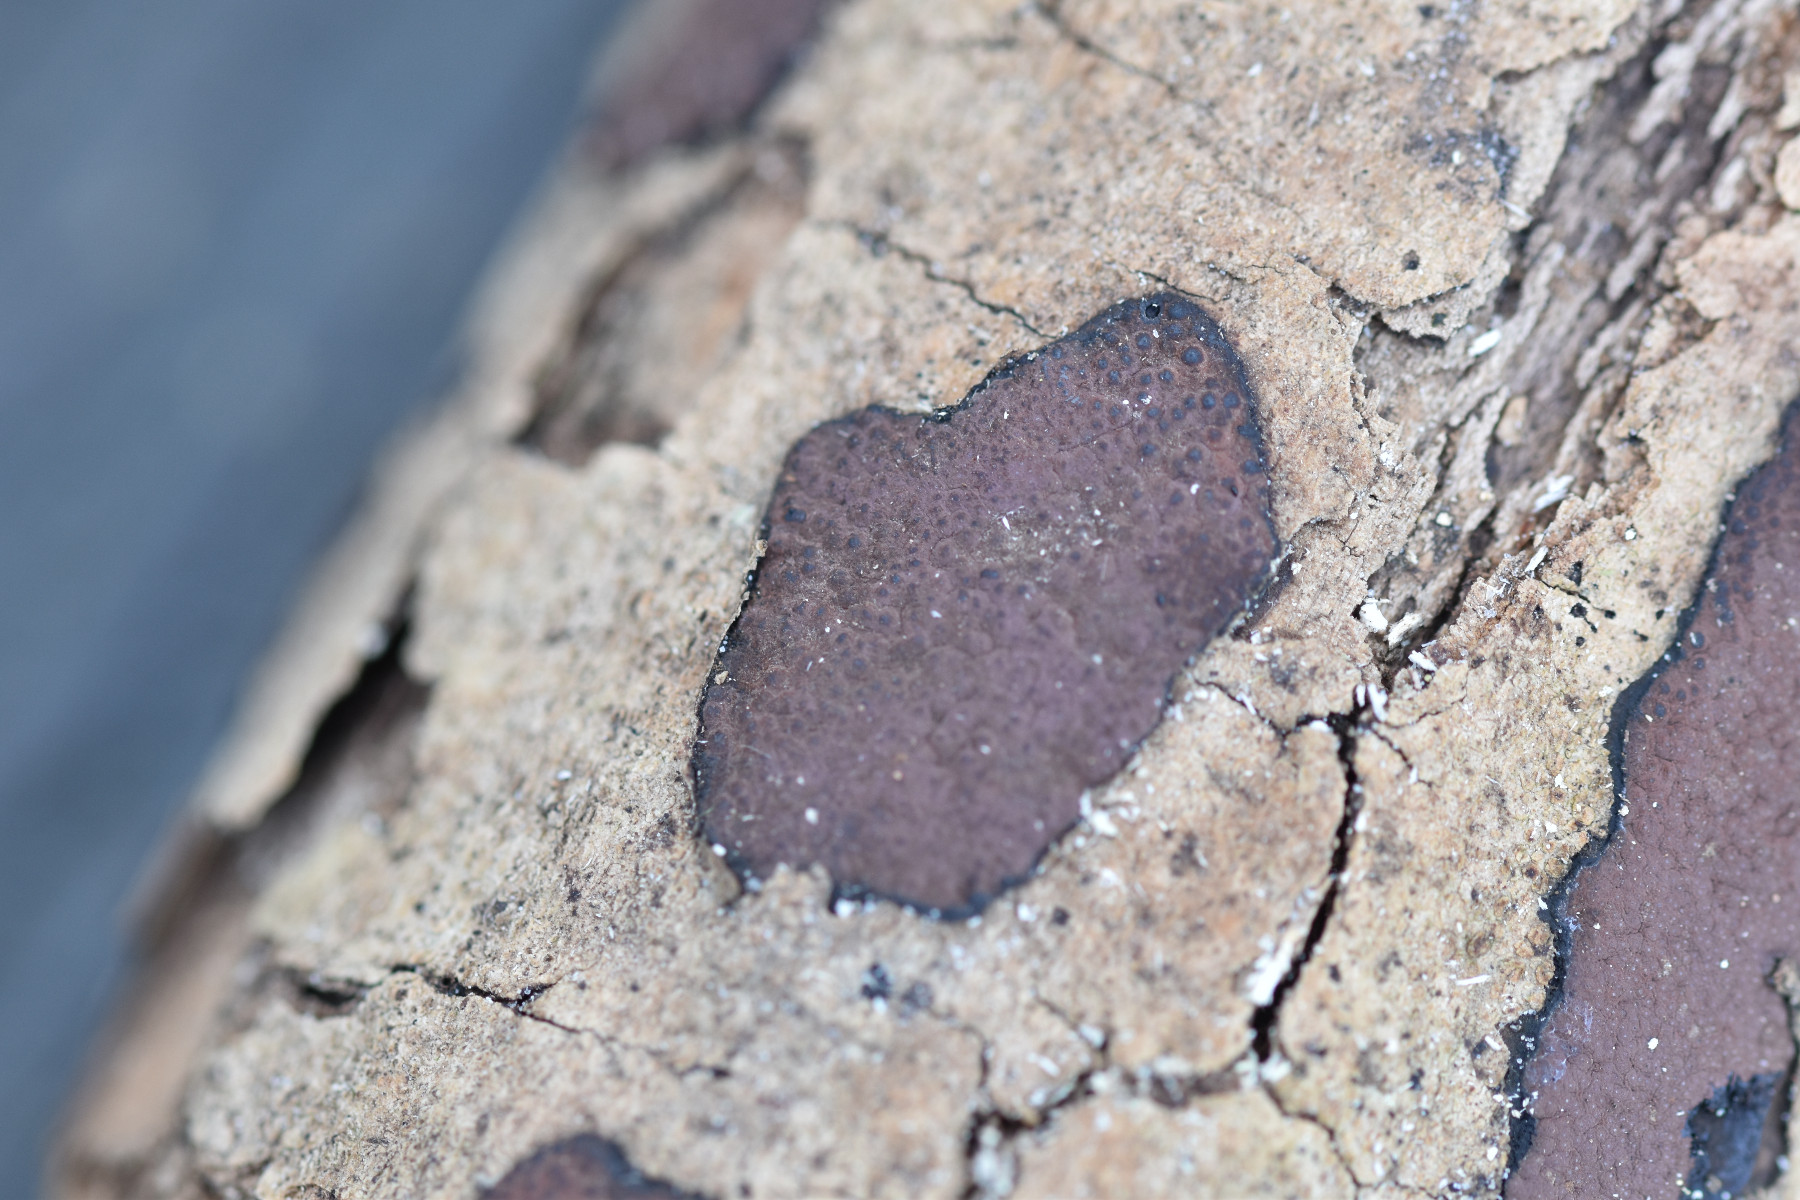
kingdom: Fungi
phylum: Ascomycota
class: Sordariomycetes
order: Xylariales
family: Hypoxylaceae
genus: Hypoxylon
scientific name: Hypoxylon petriniae
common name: nedsænket kulbær
